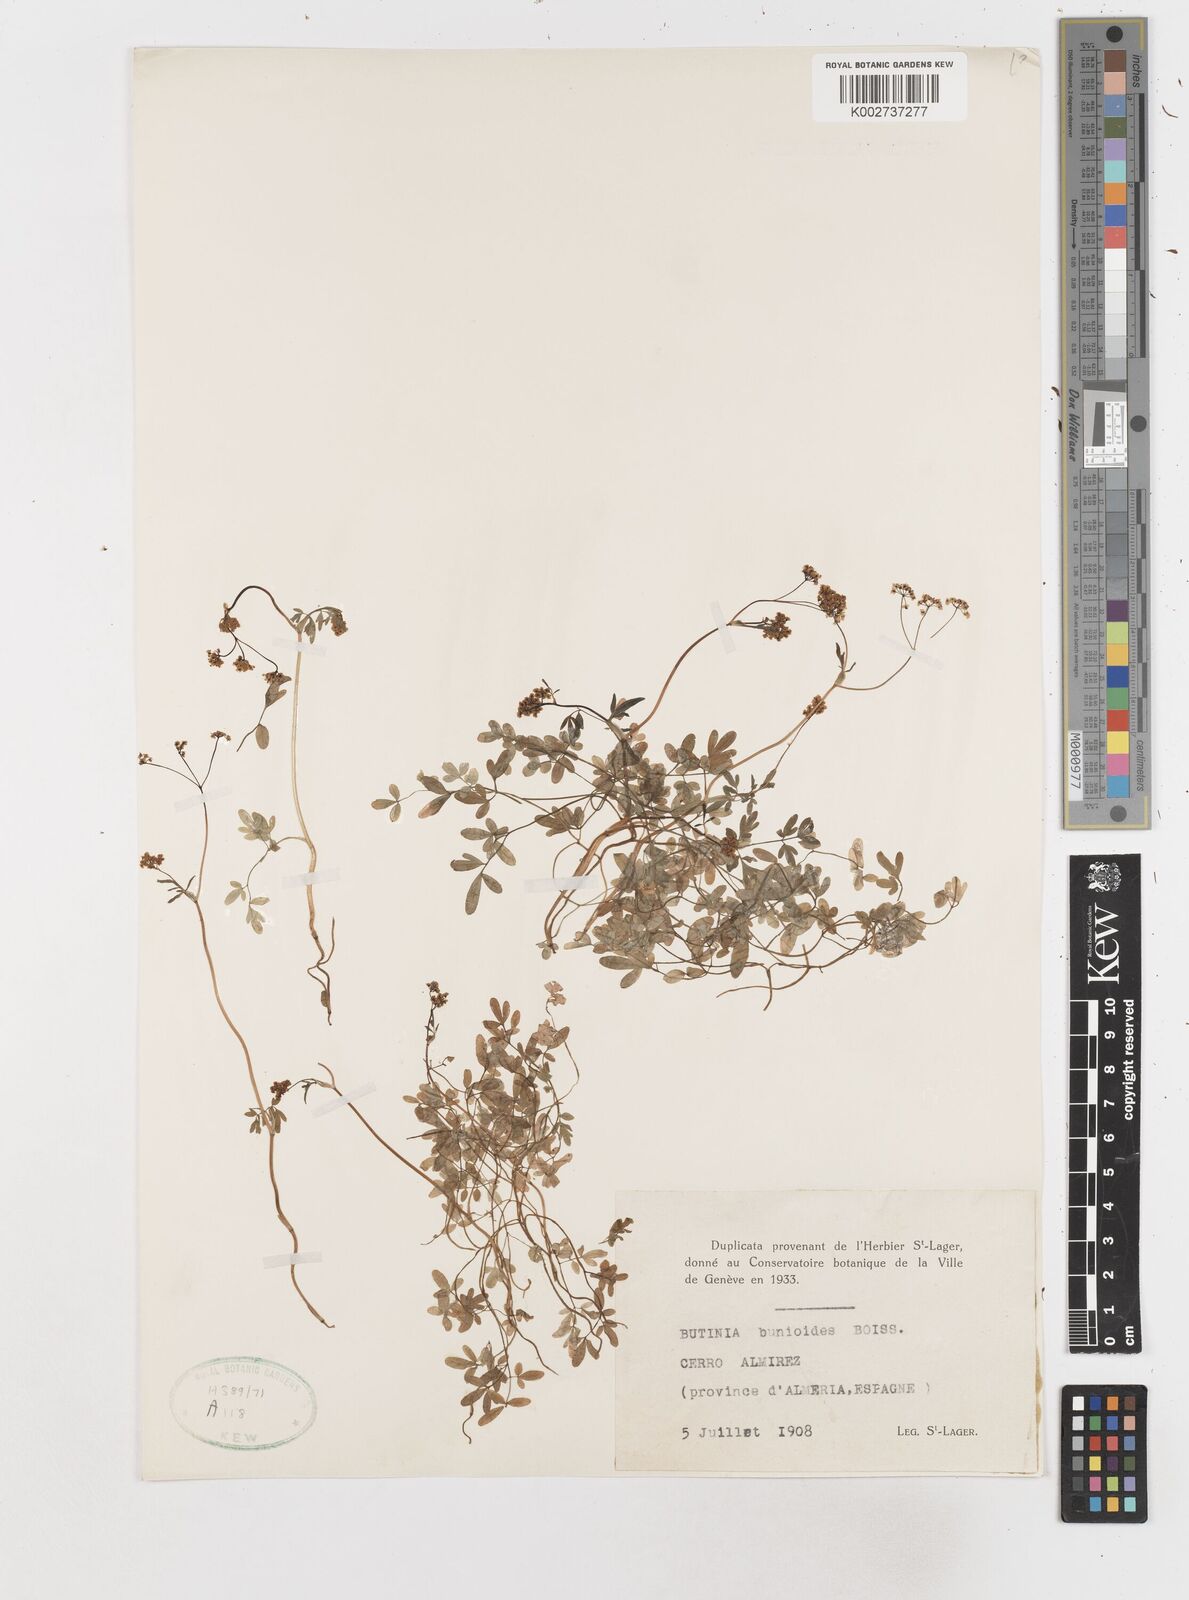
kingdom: Plantae
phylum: Tracheophyta
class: Magnoliopsida
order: Apiales
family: Apiaceae
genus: Conopodium
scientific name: Conopodium bunioides
